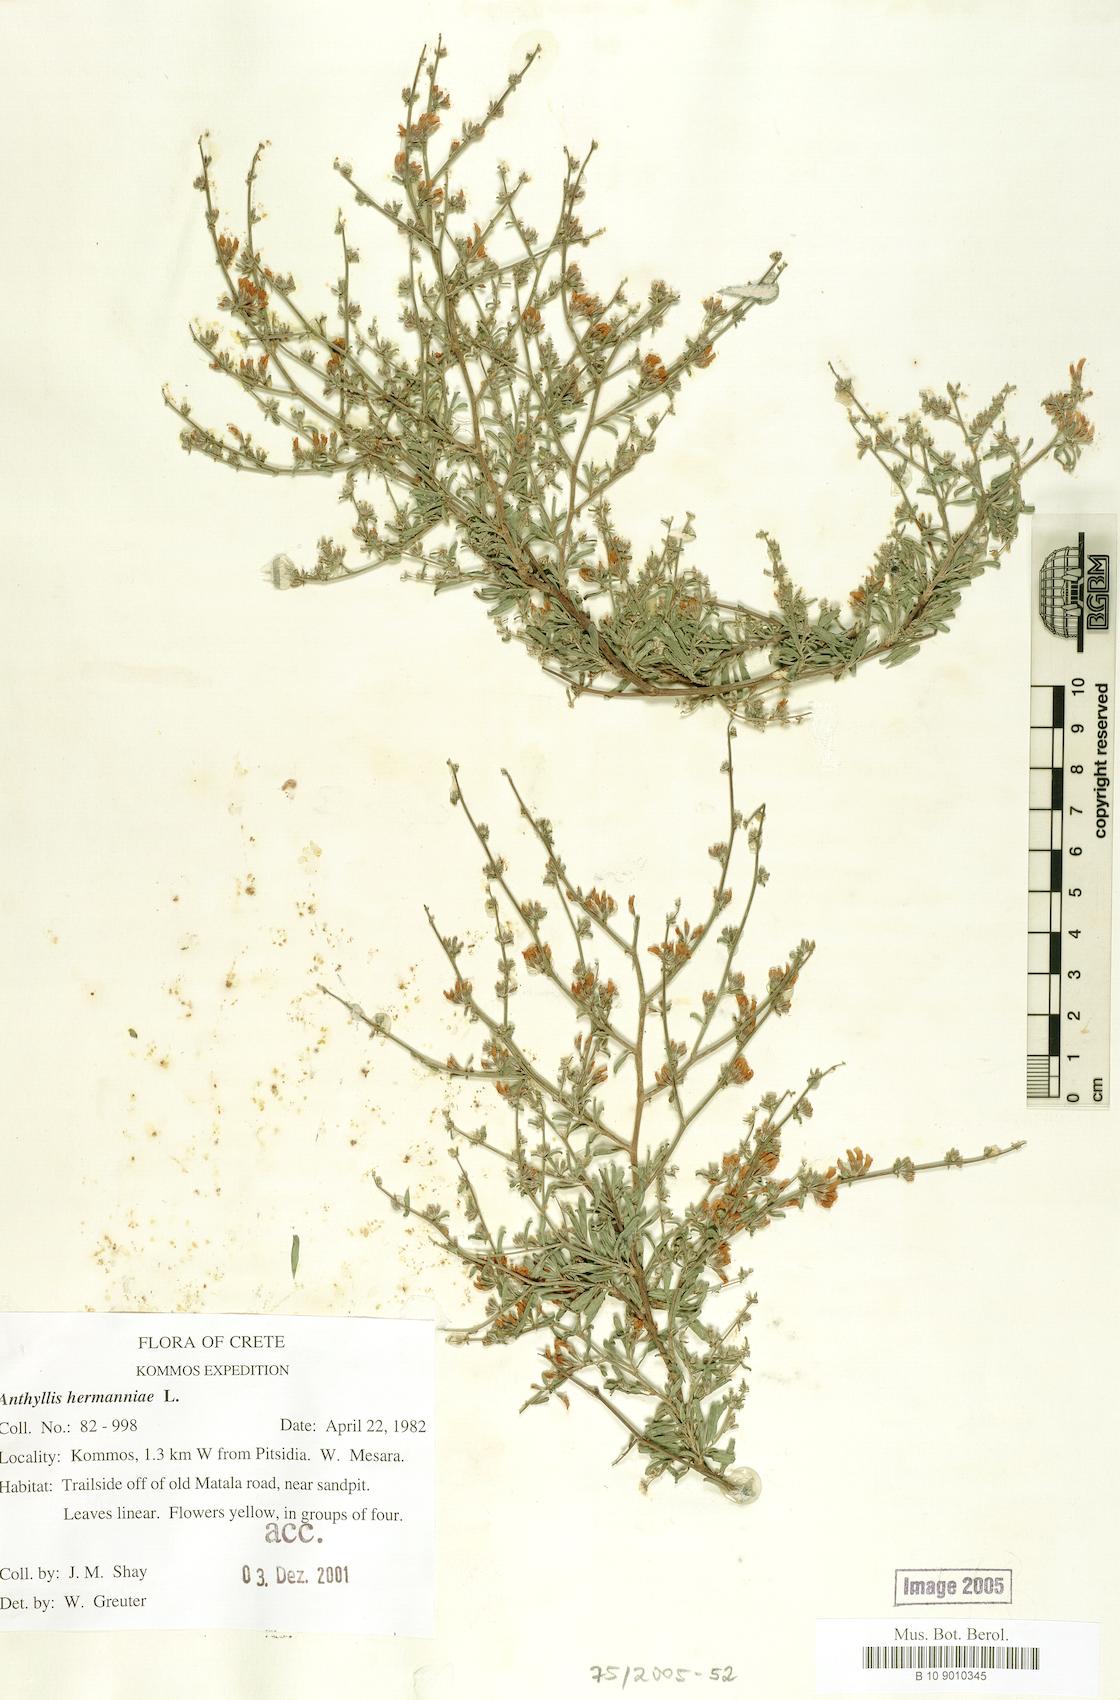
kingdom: Plantae
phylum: Tracheophyta
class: Magnoliopsida
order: Fabales
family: Fabaceae
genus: Anthyllis
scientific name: Anthyllis hermanniae
